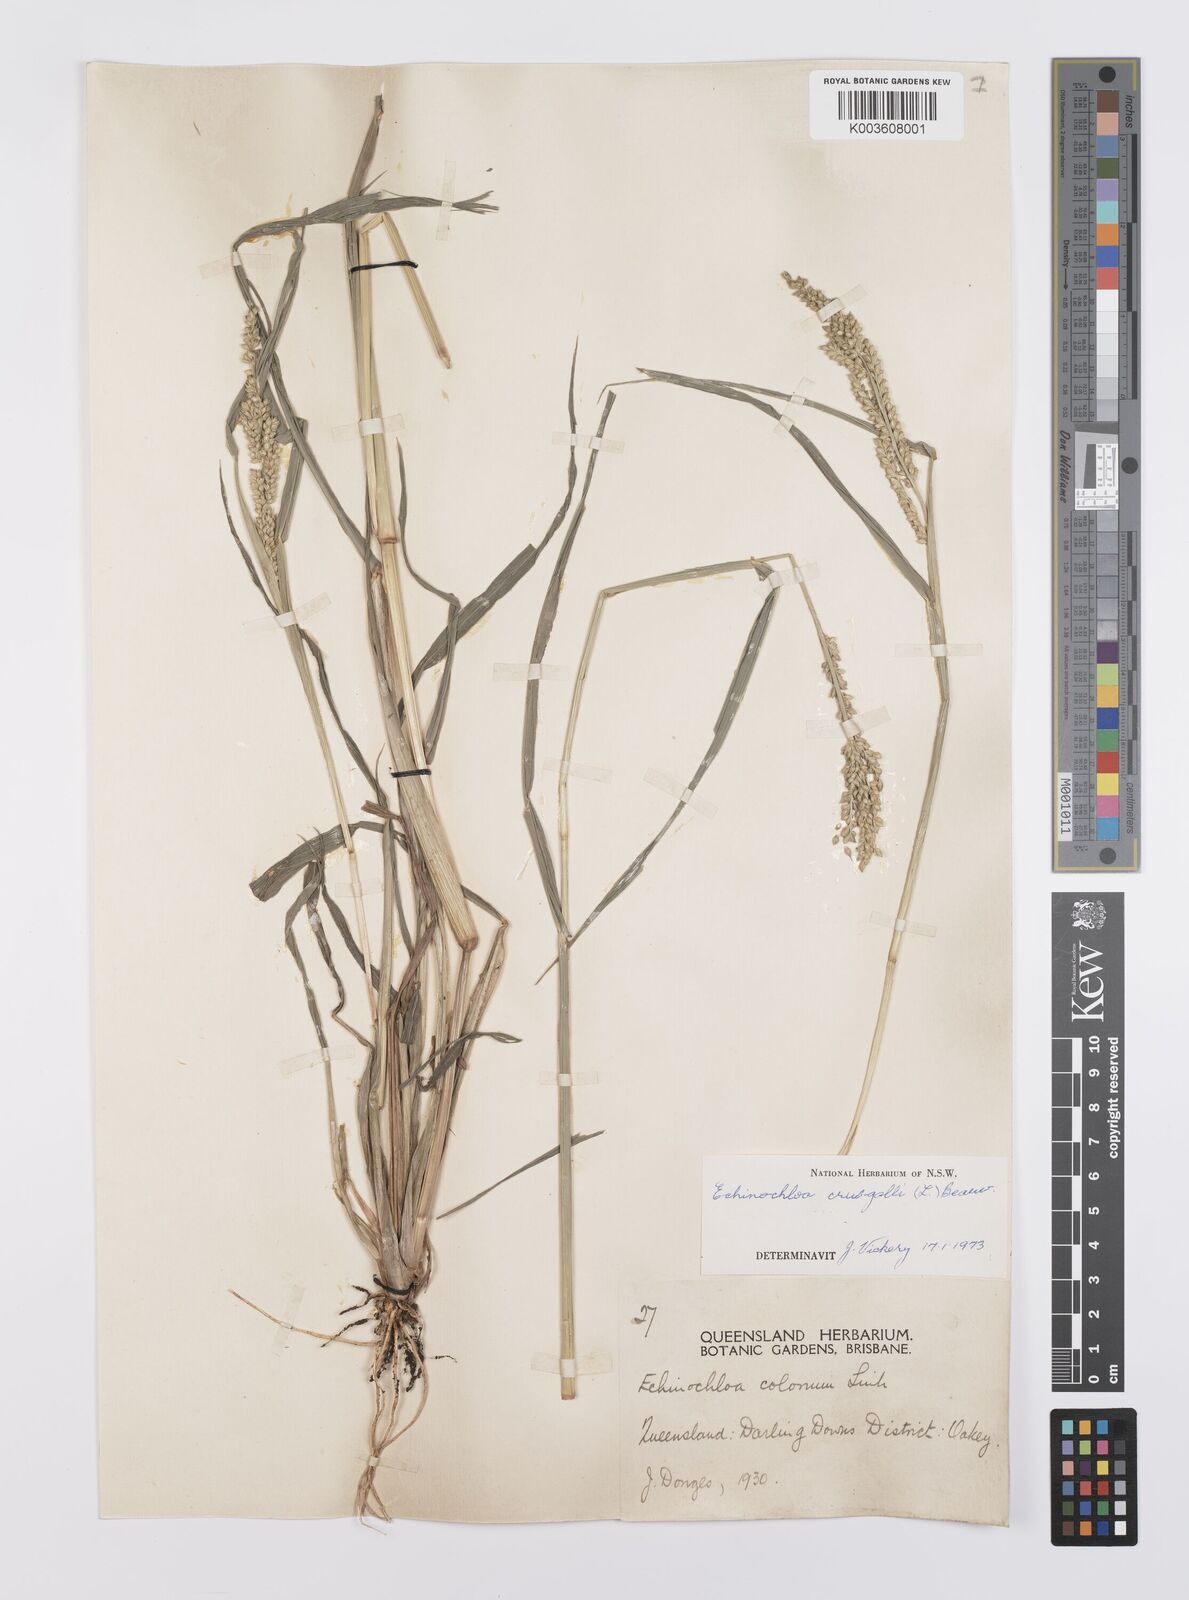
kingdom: Plantae
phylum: Tracheophyta
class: Liliopsida
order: Poales
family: Poaceae
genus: Echinochloa
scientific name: Echinochloa crus-galli
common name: Cockspur
